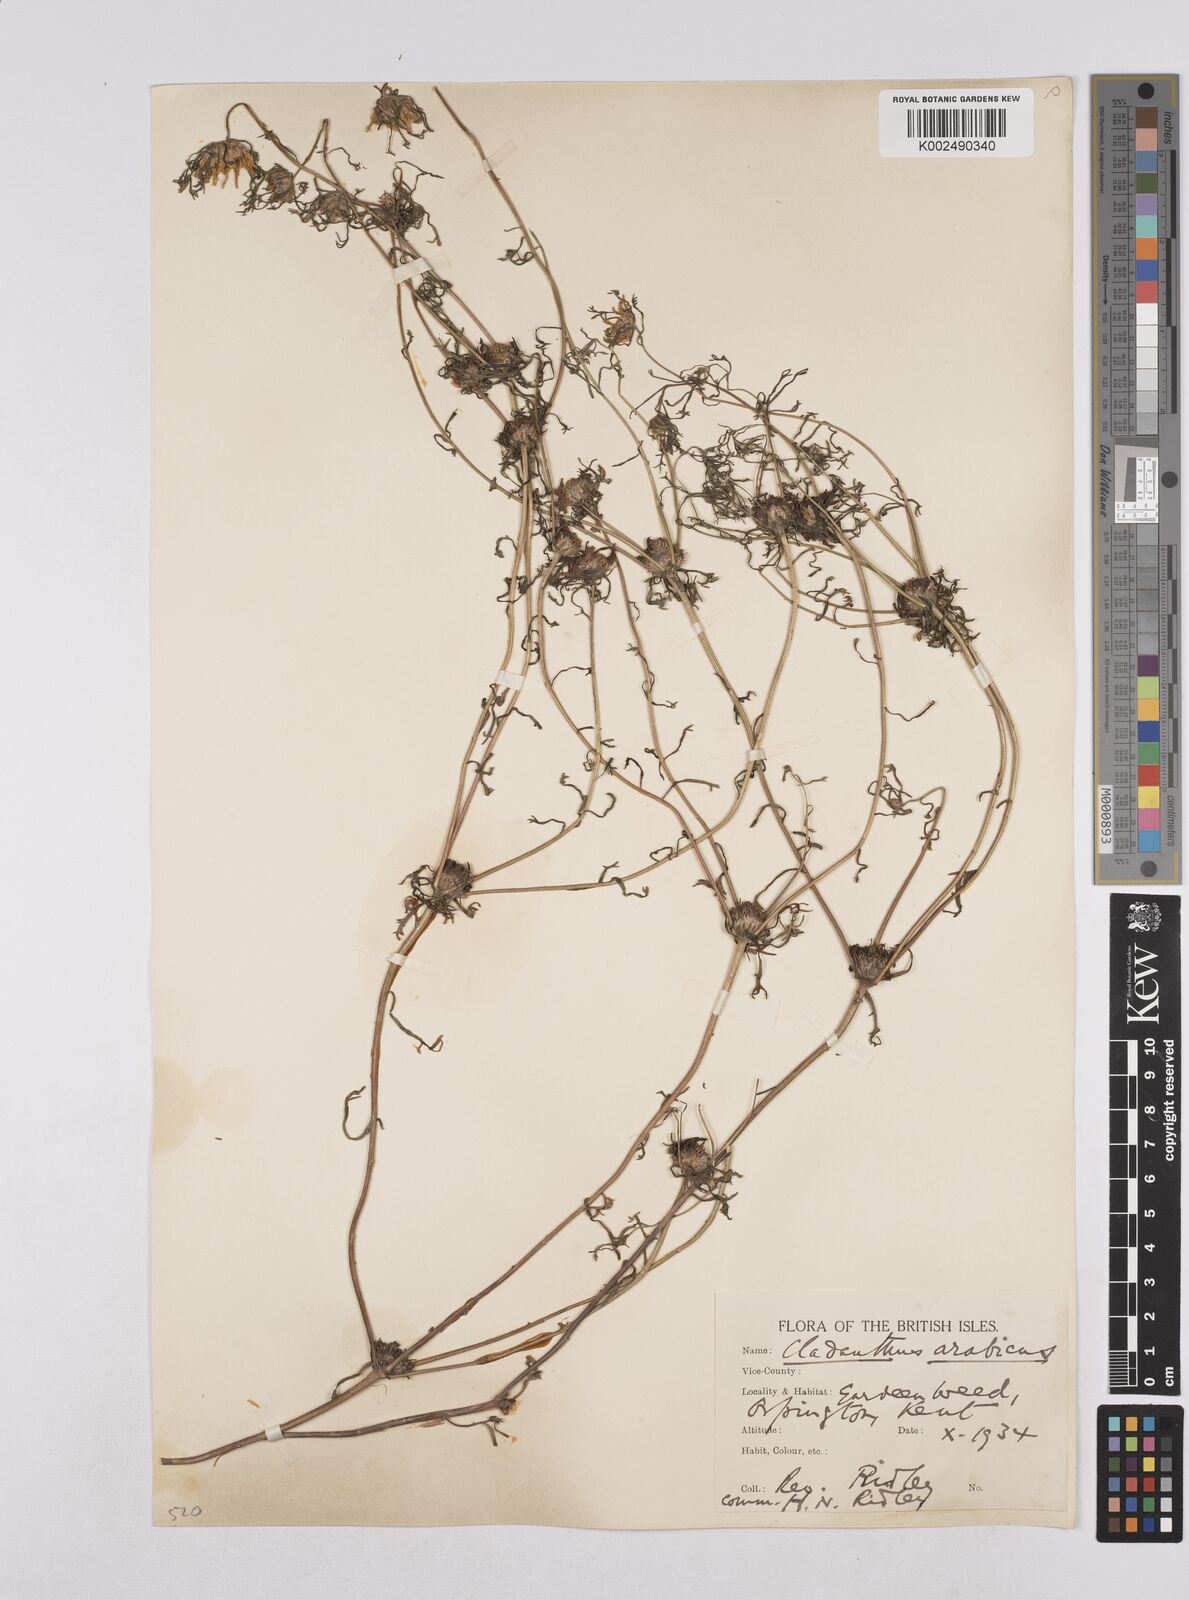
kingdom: Plantae
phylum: Tracheophyta
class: Magnoliopsida
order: Asterales
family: Asteraceae
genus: Cladanthus
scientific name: Cladanthus arabicus
